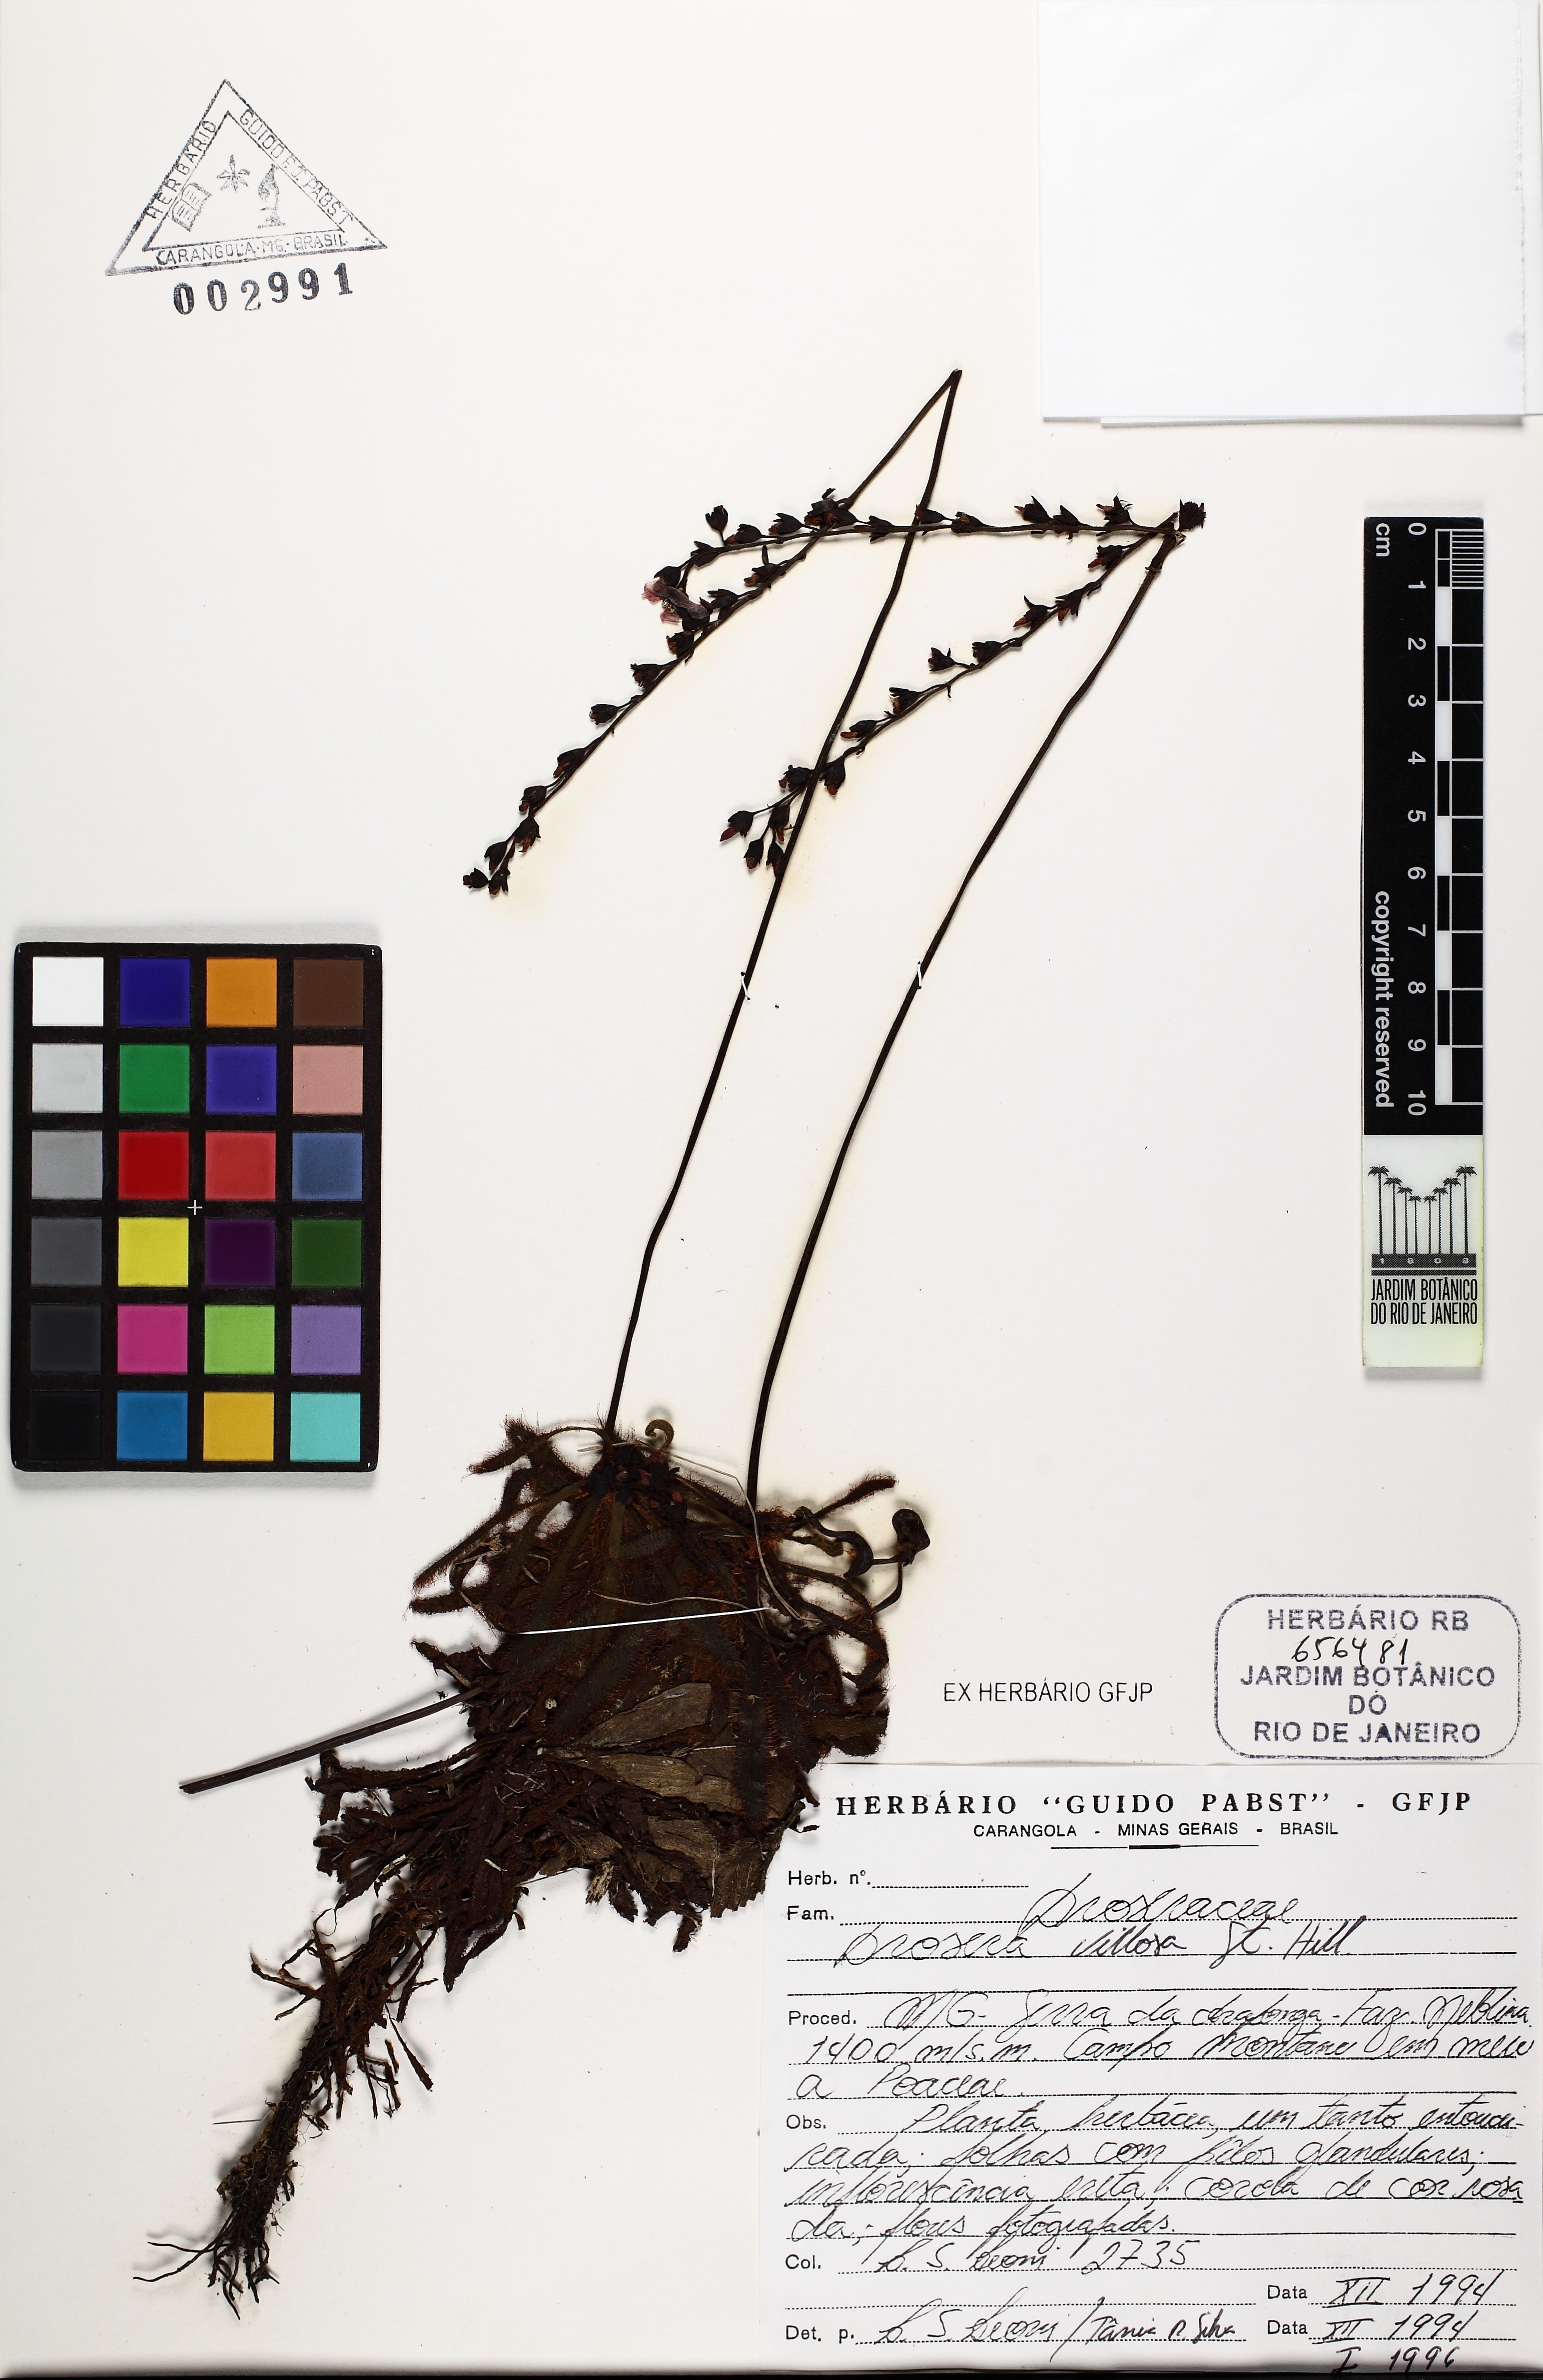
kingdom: Plantae
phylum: Tracheophyta
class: Magnoliopsida
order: Caryophyllales
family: Droseraceae
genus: Drosera
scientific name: Drosera villosa
